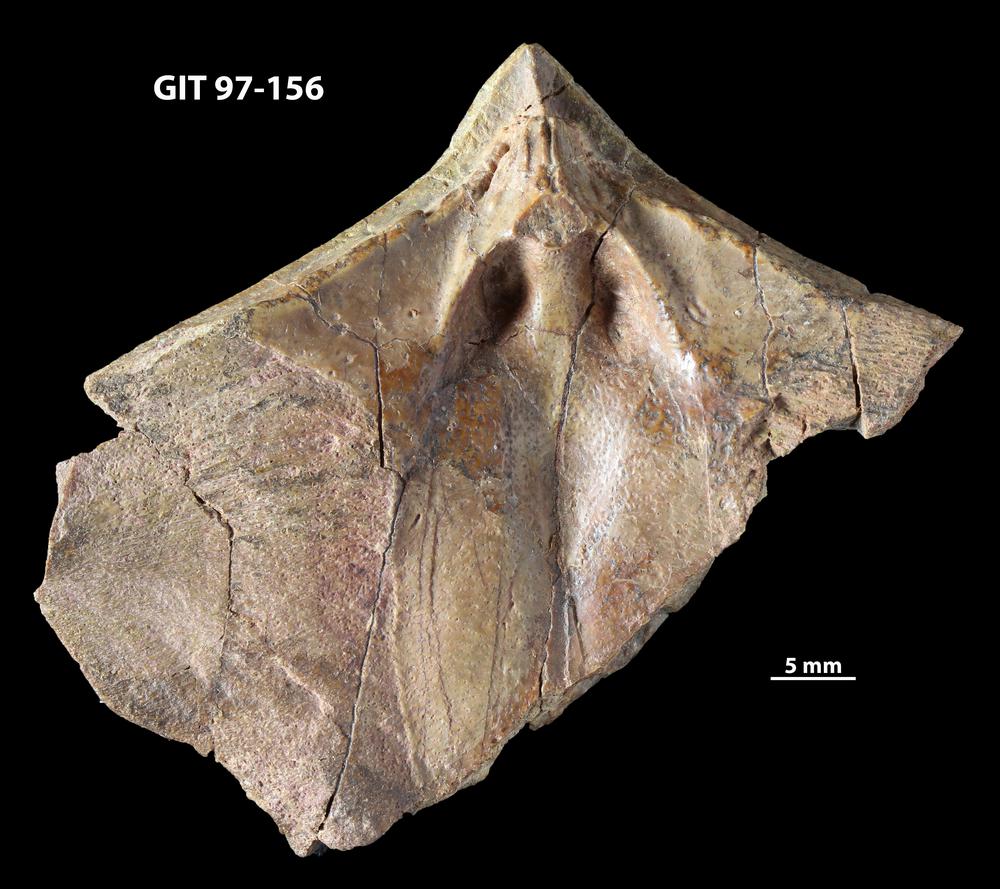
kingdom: Animalia
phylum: Chordata
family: Holonematidae
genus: Holonema
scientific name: Holonema
